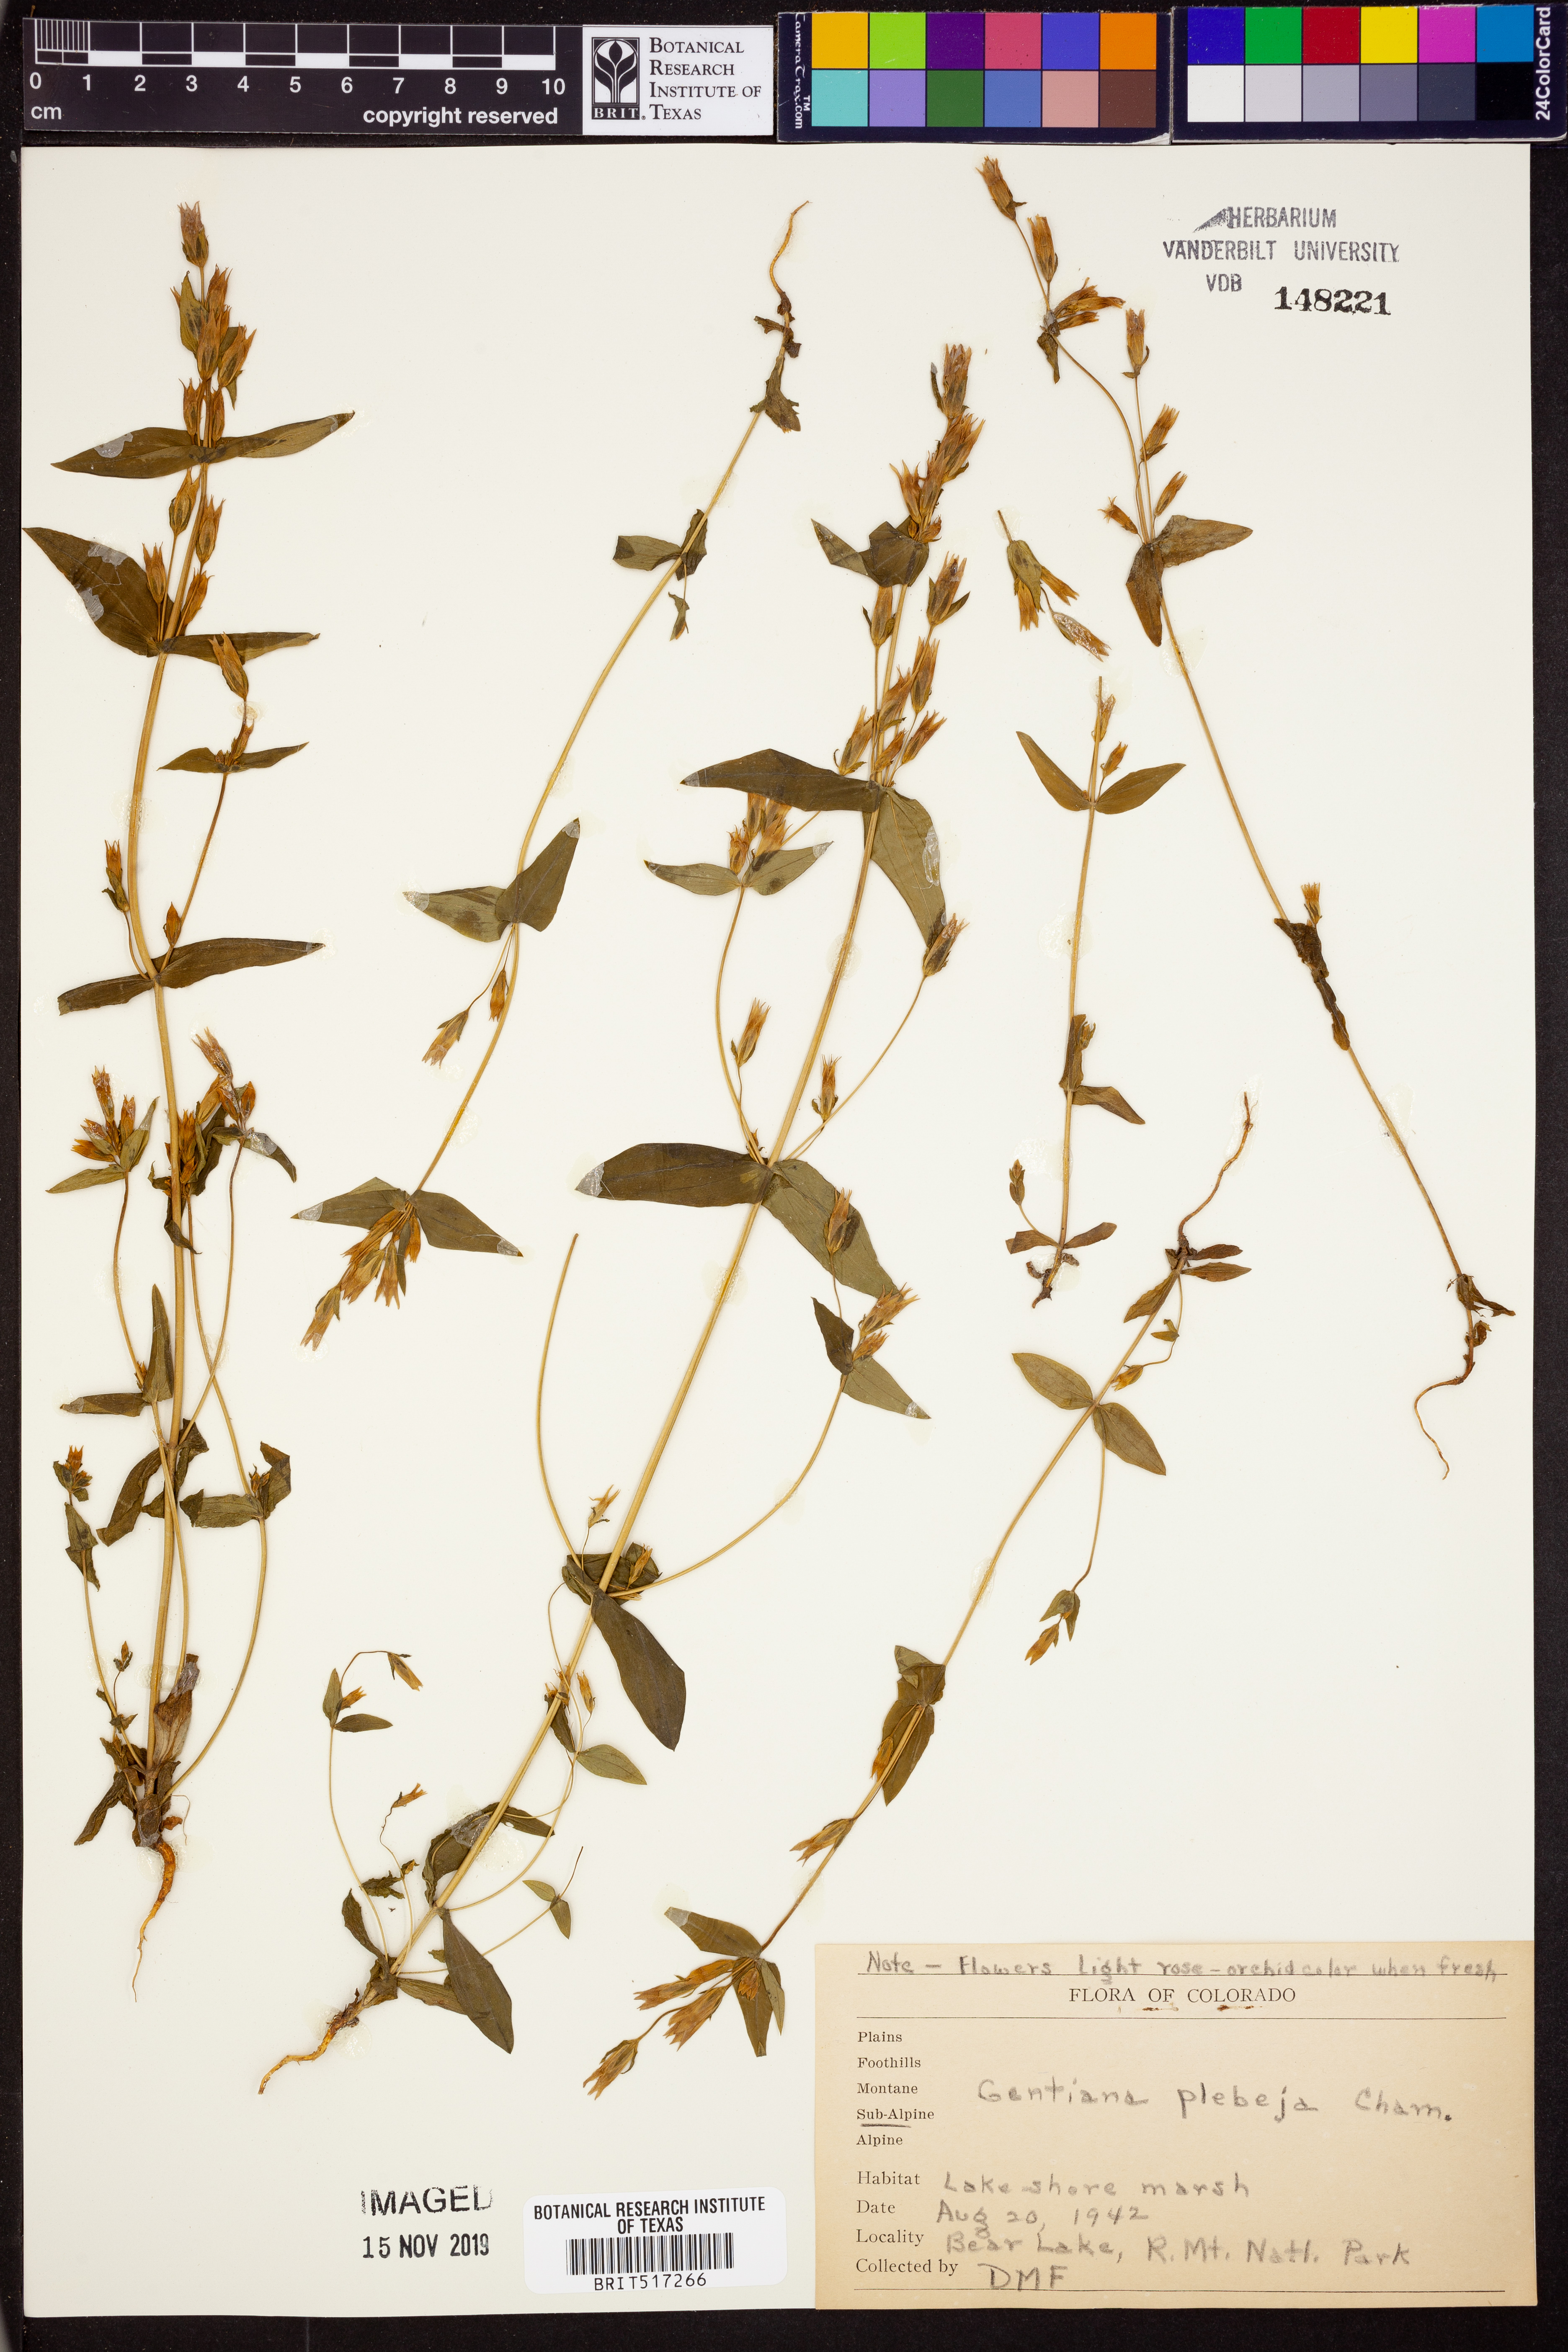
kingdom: Plantae
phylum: Tracheophyta
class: Magnoliopsida
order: Gentianales
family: Gentianaceae
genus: Gentianella
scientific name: Gentianella amarella
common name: Autumn gentian
